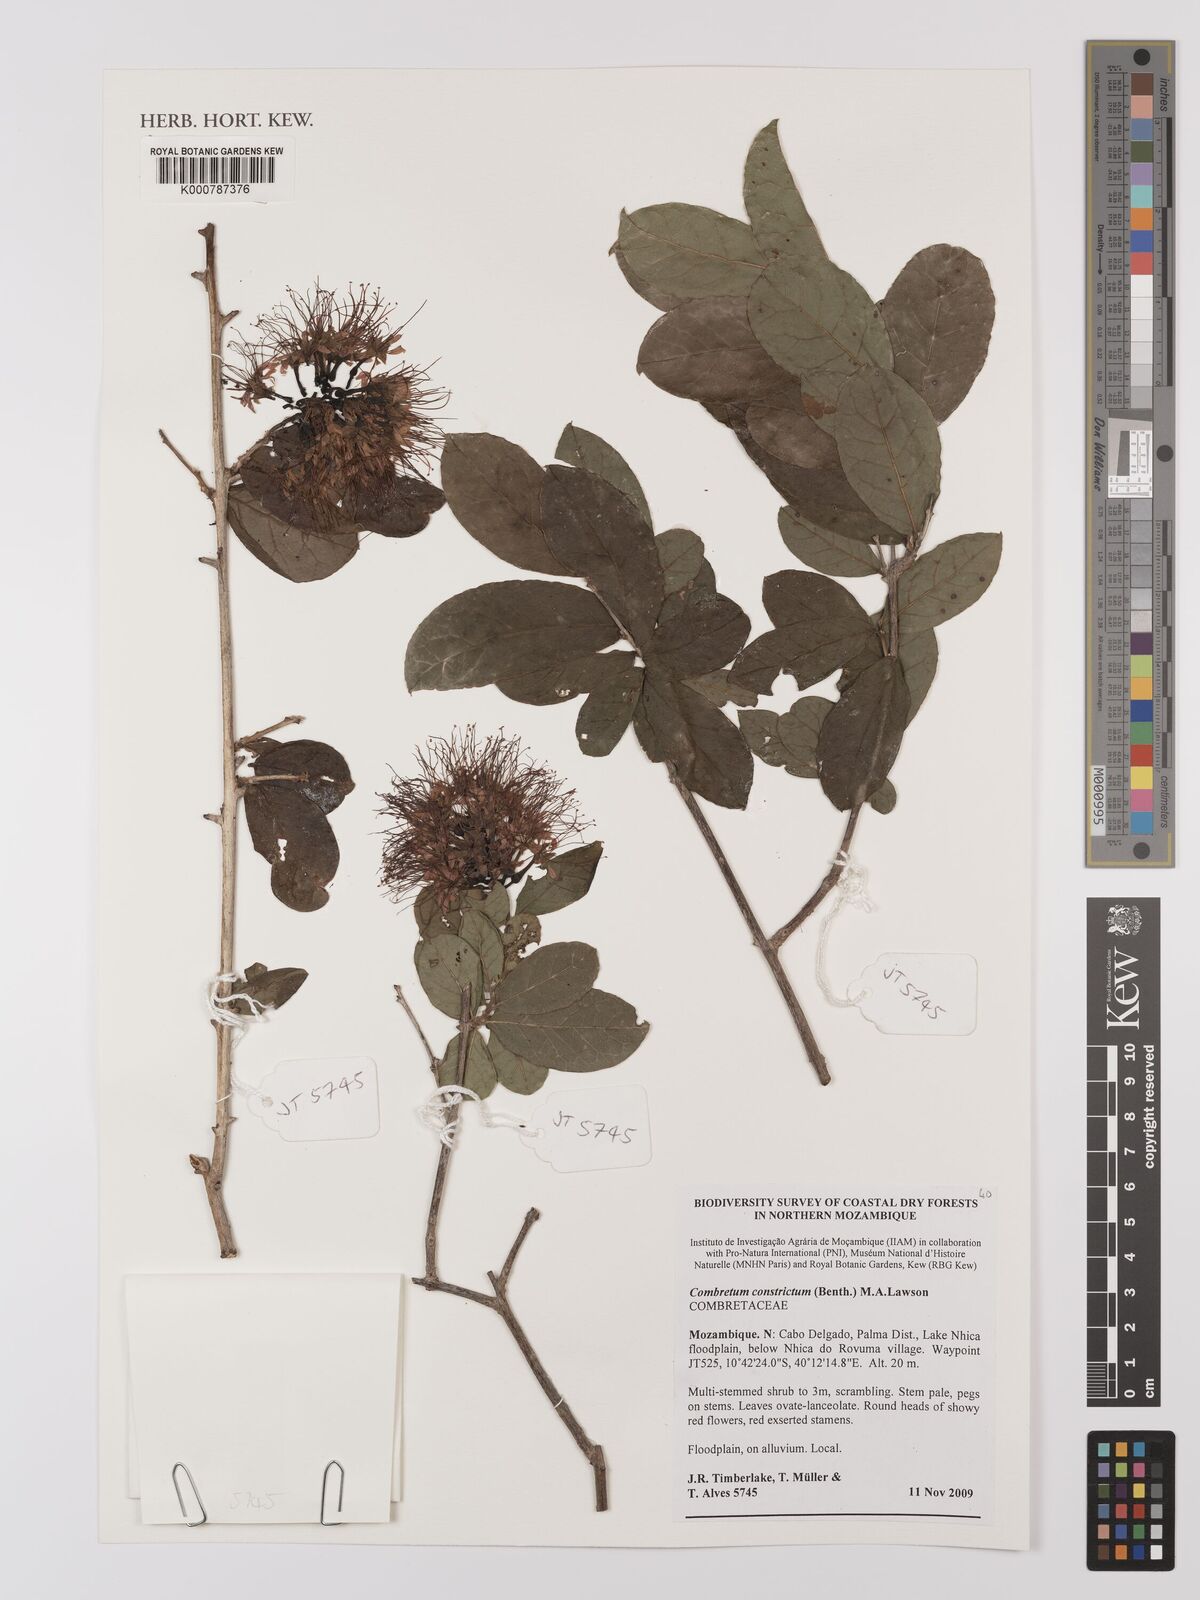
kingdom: Plantae
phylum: Tracheophyta
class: Magnoliopsida
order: Myrtales
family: Combretaceae
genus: Combretum
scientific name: Combretum constrictum
